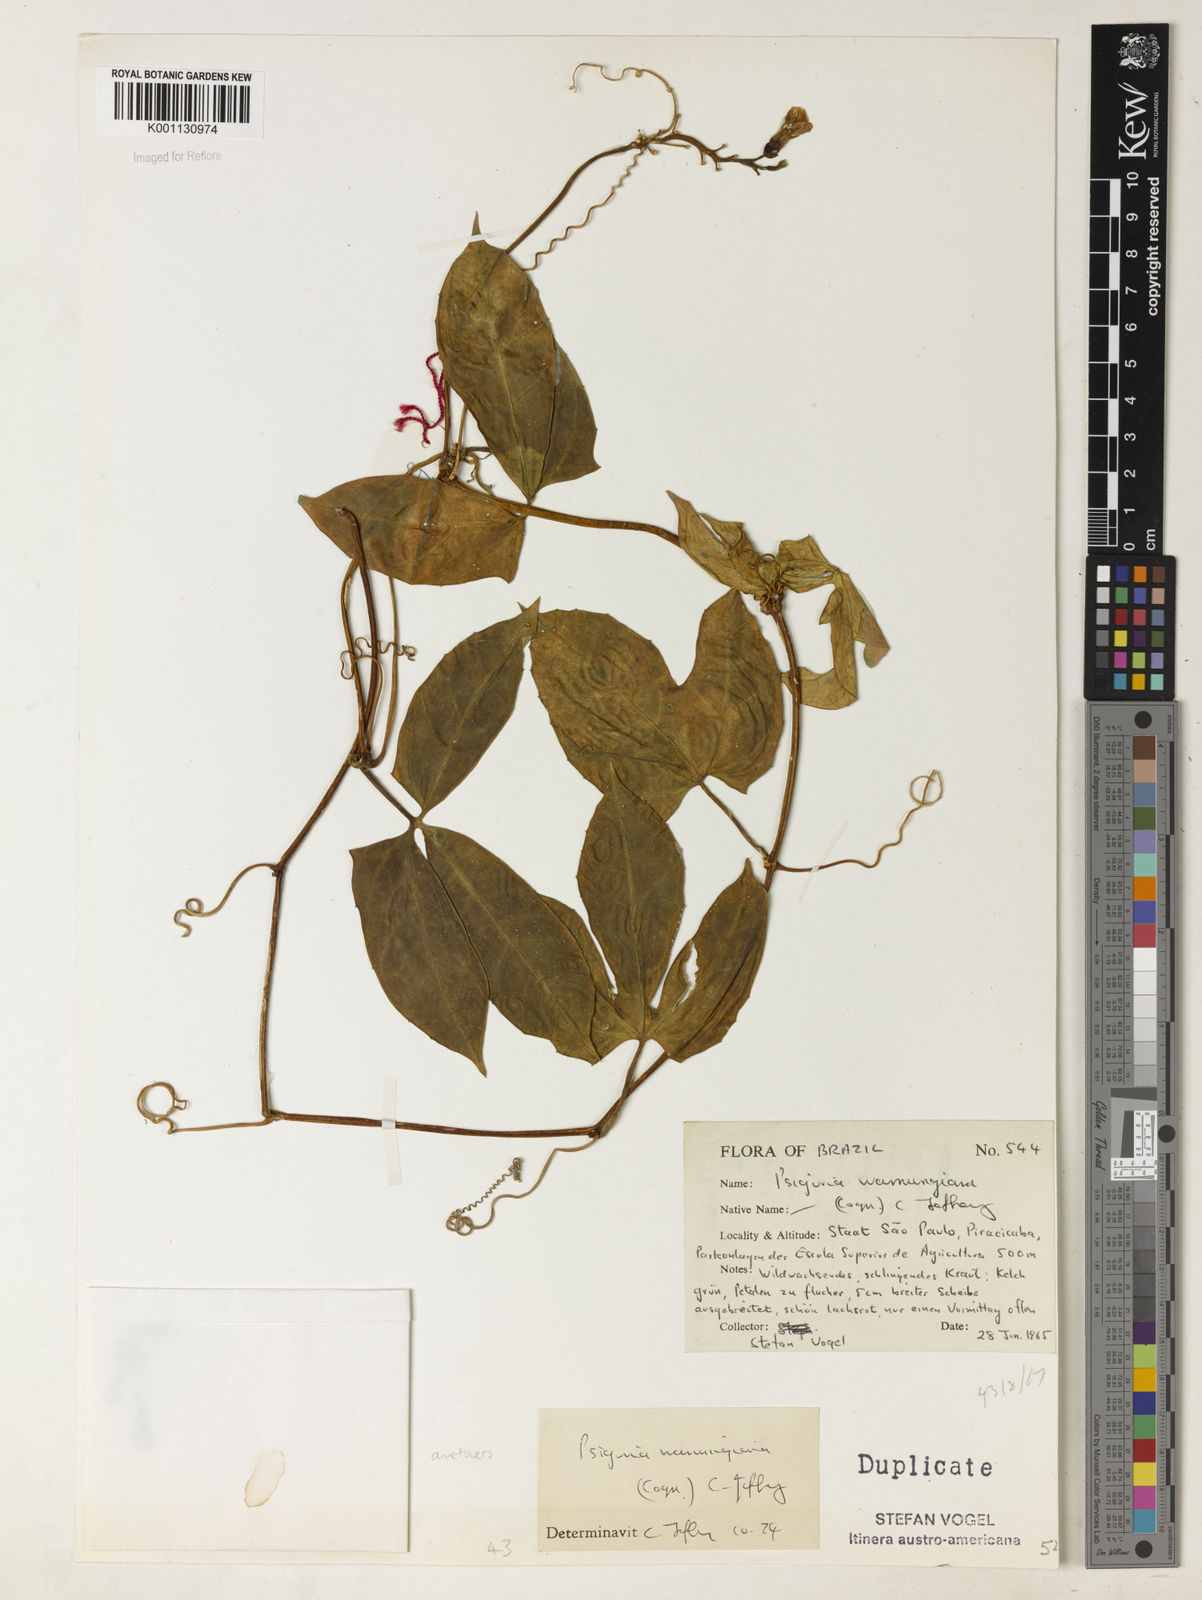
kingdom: Plantae
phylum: Tracheophyta
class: Magnoliopsida
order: Cucurbitales
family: Cucurbitaceae
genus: Psiguria
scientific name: Psiguria warmingiana
